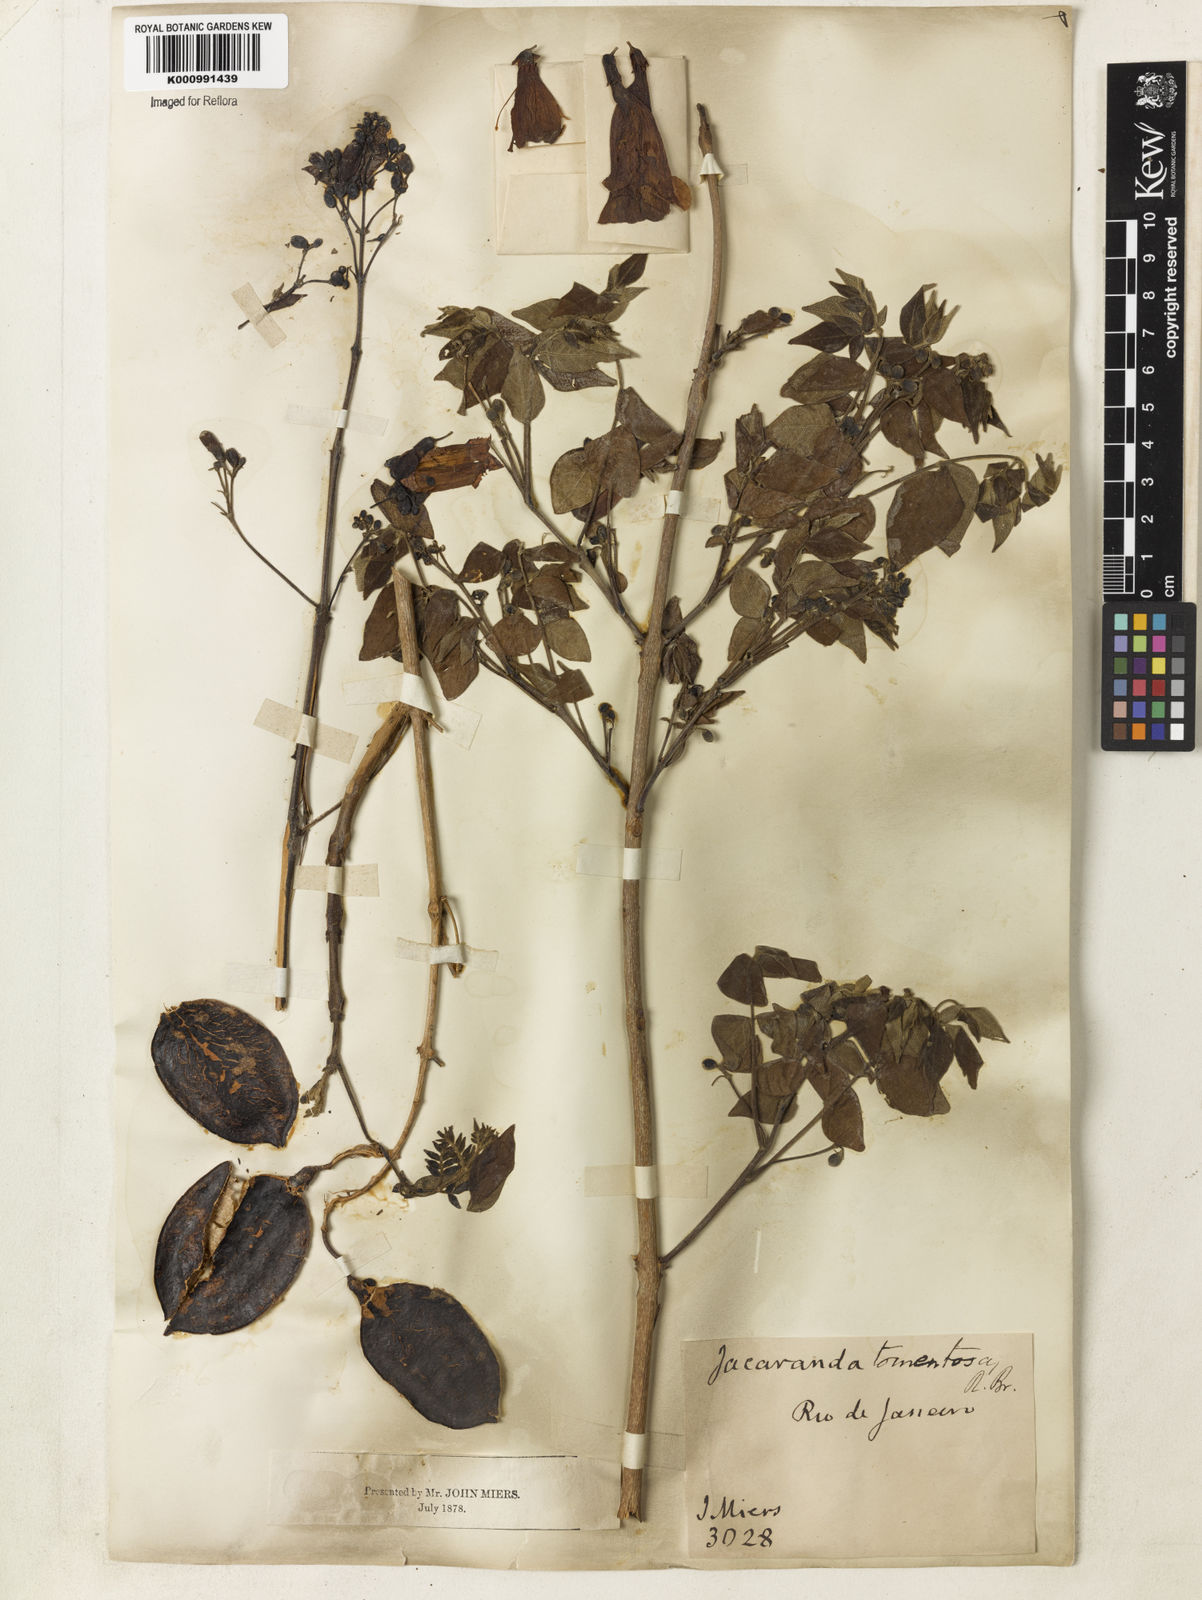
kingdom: Plantae
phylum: Tracheophyta
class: Magnoliopsida
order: Lamiales
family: Bignoniaceae
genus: Jacaranda
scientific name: Jacaranda jasminoides
